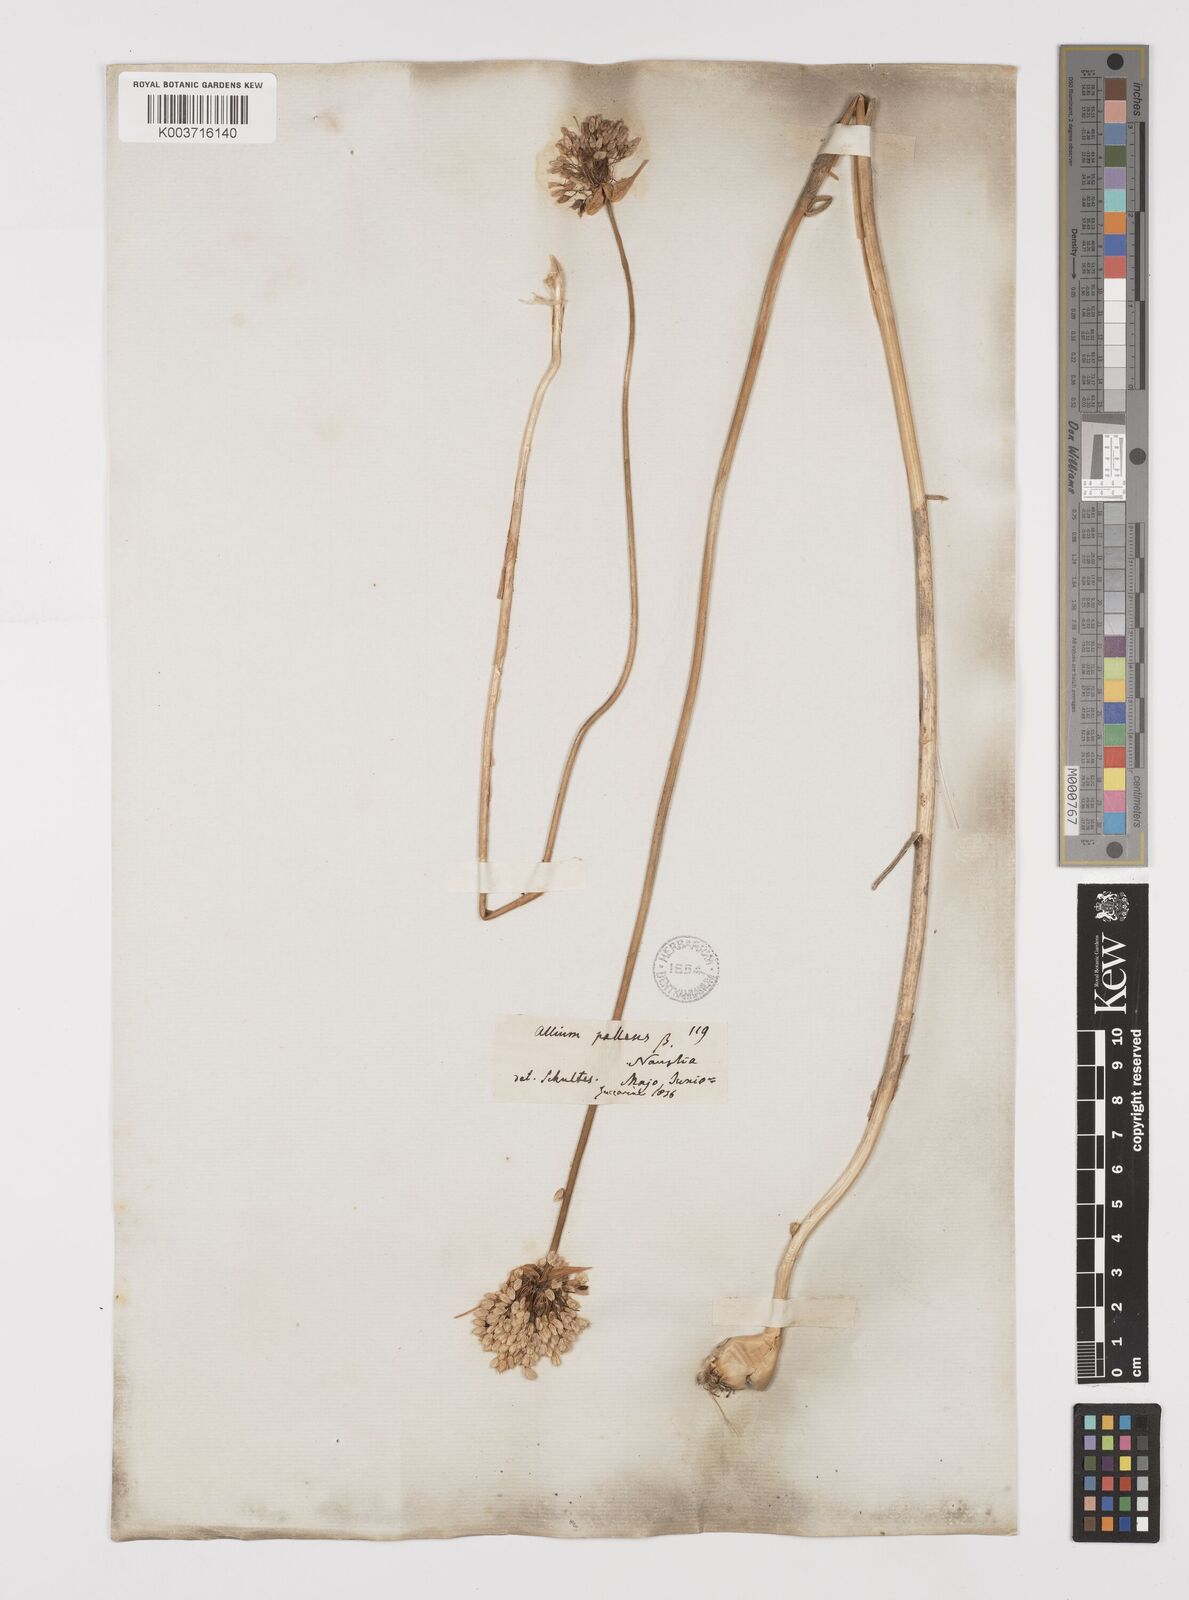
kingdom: Plantae
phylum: Tracheophyta
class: Liliopsida
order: Asparagales
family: Amaryllidaceae
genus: Allium
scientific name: Allium pallens
